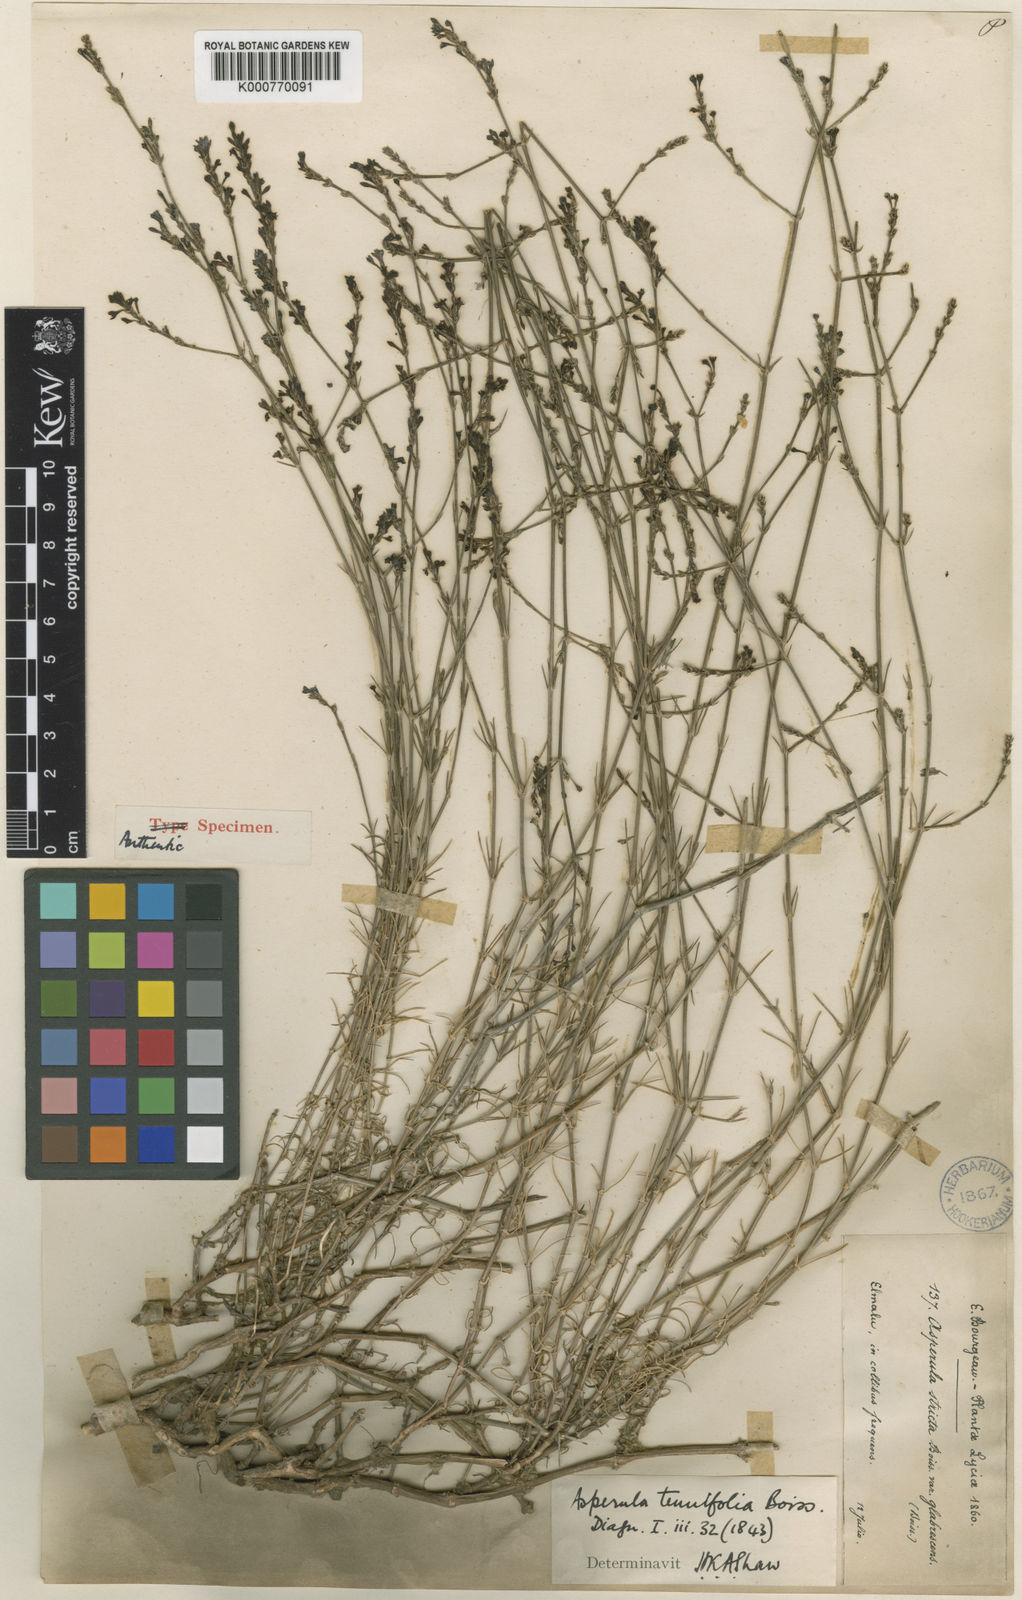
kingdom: Plantae
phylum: Tracheophyta
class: Magnoliopsida
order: Gentianales
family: Rubiaceae
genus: Cynanchica
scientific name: Cynanchica tenuifolia
